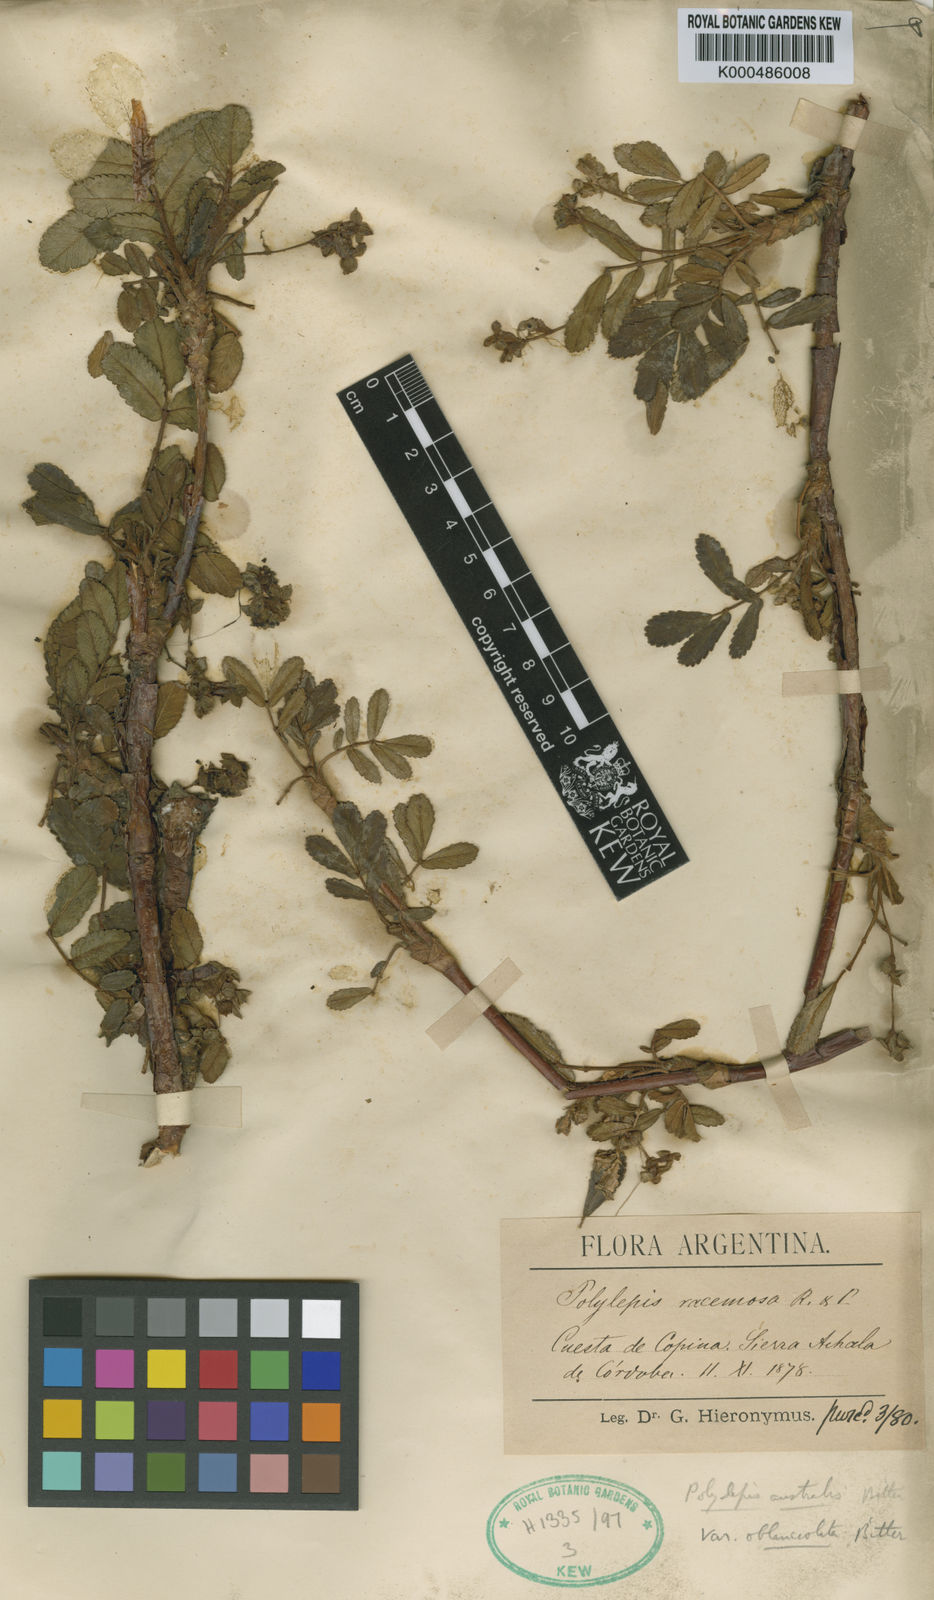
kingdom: Plantae
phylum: Tracheophyta
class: Magnoliopsida
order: Rosales
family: Rosaceae
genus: Polylepis
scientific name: Polylepis australis
